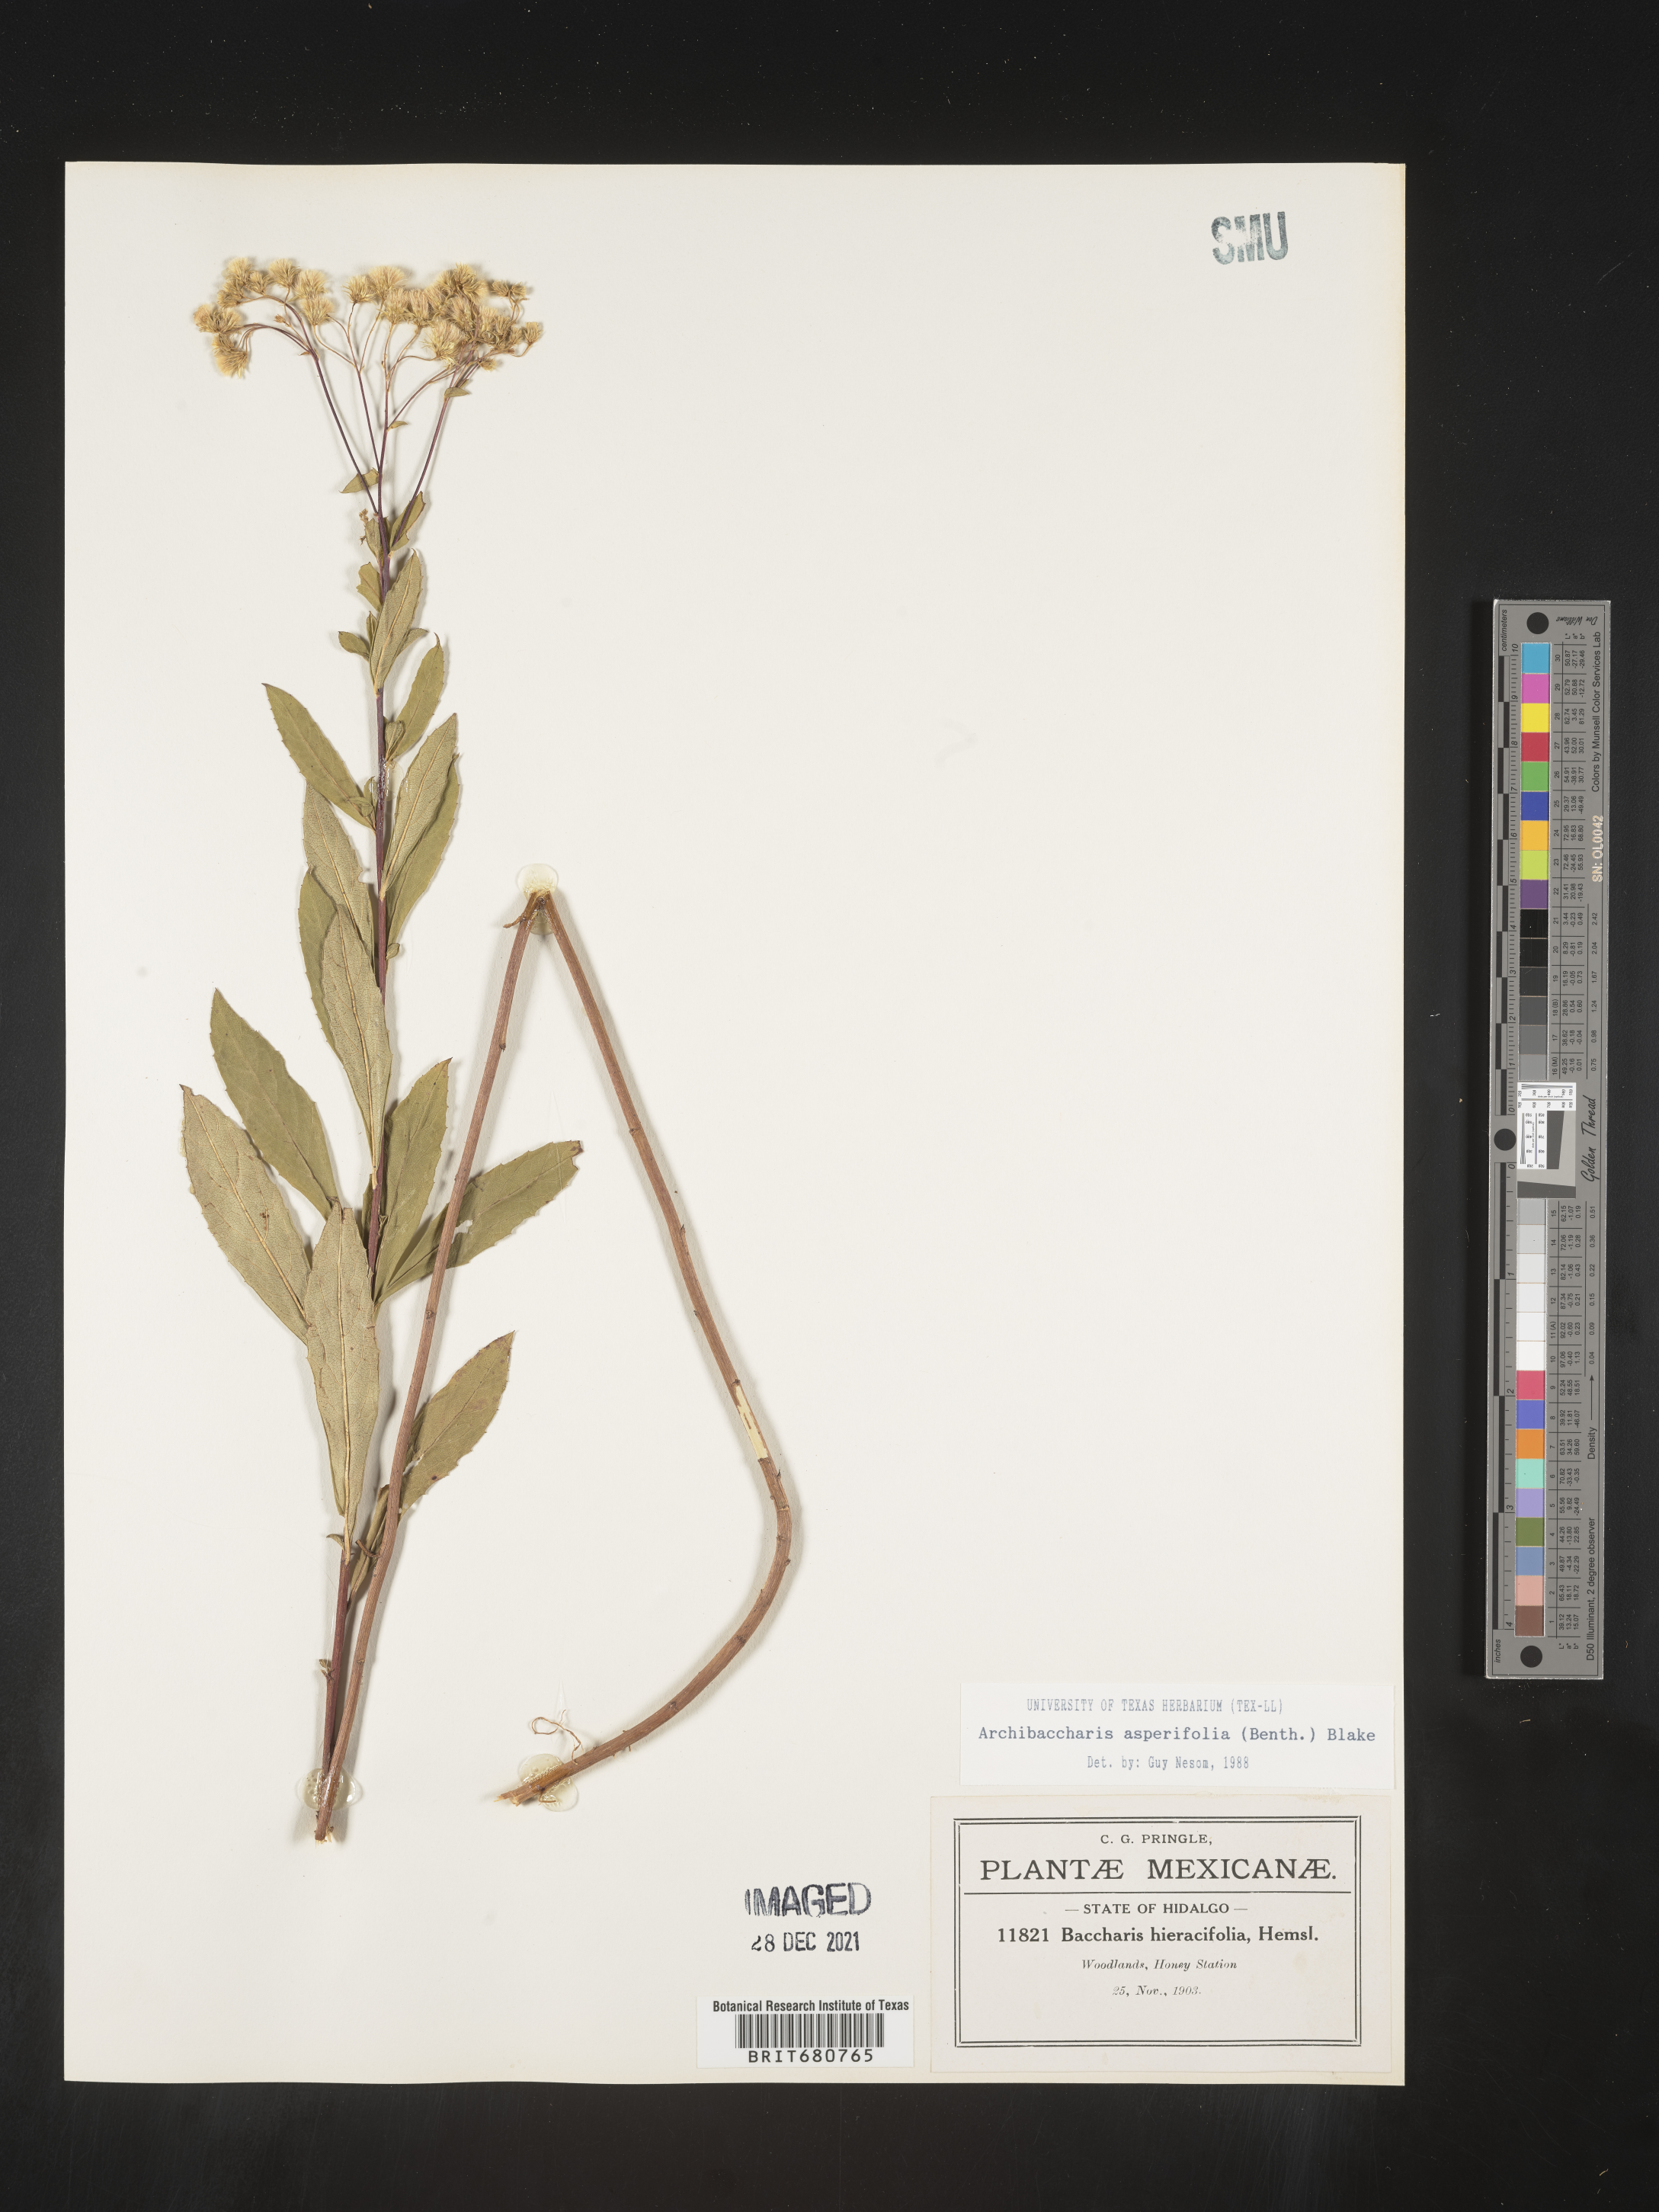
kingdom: Plantae
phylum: Tracheophyta
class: Magnoliopsida
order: Asterales
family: Asteraceae
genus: Archibaccharis
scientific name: Archibaccharis
